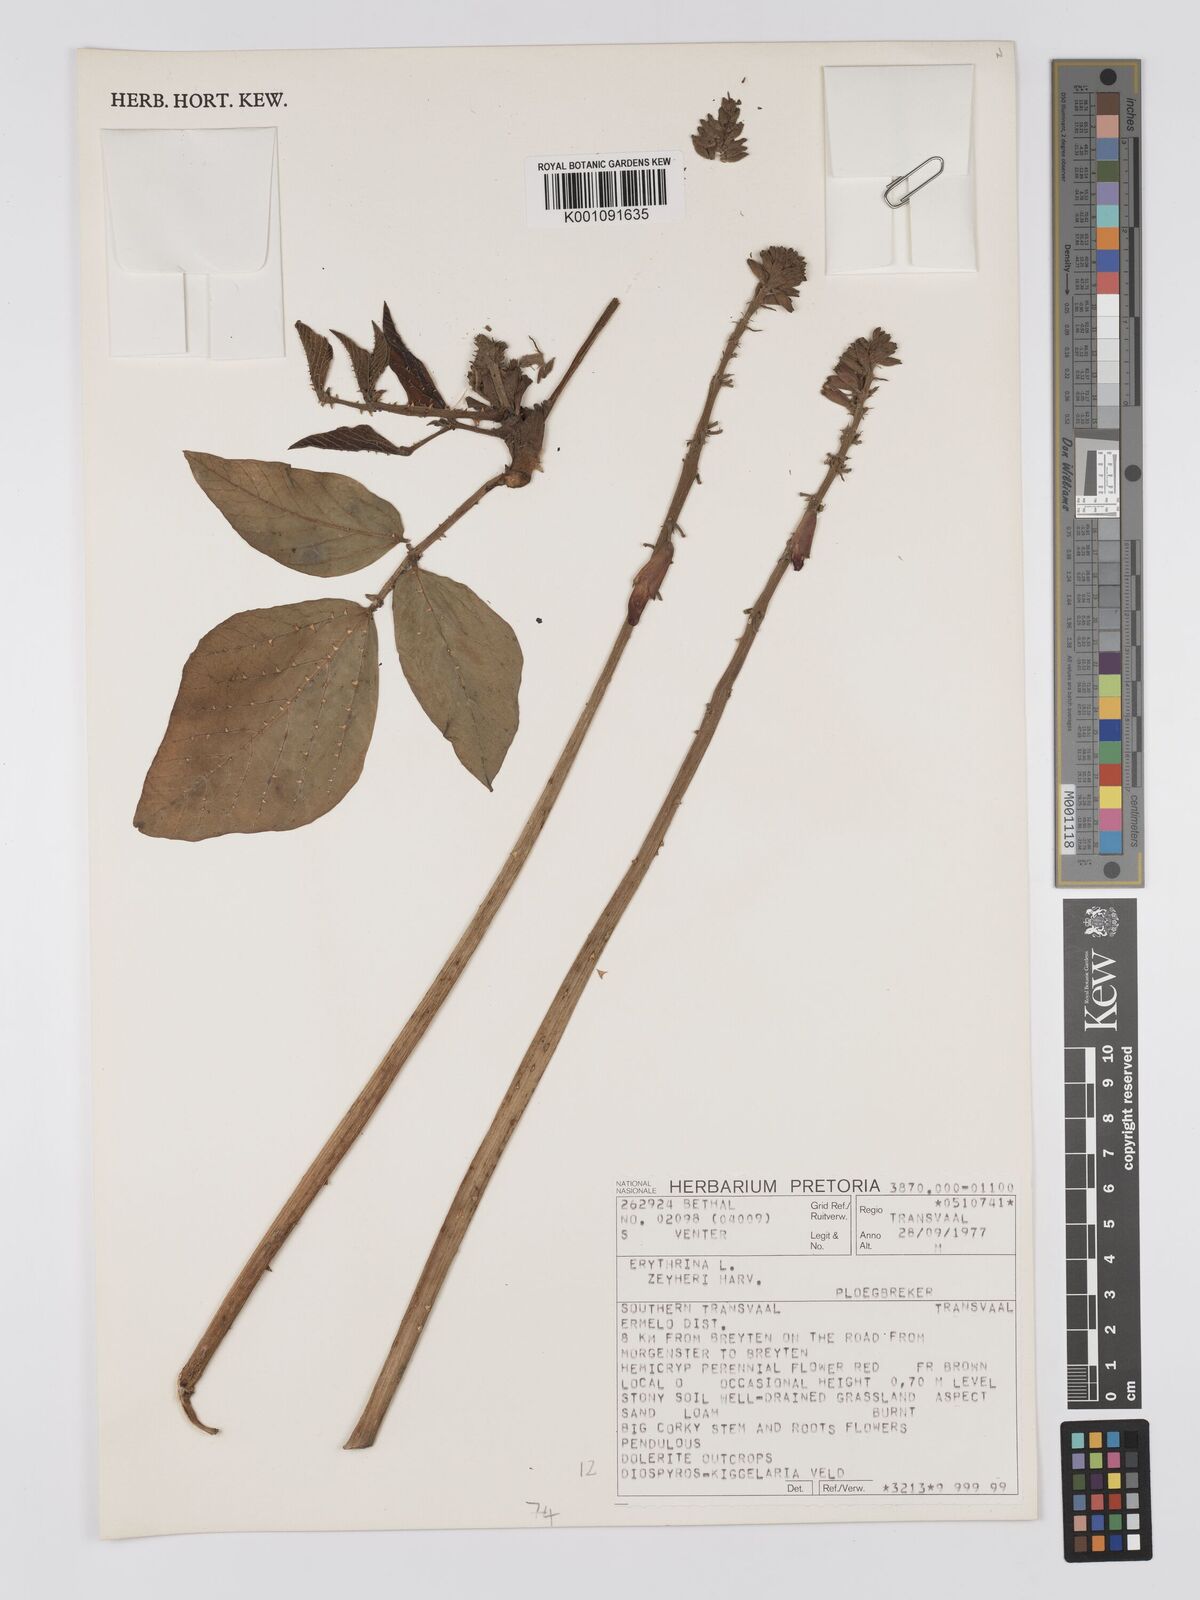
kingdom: Plantae
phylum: Tracheophyta
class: Magnoliopsida
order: Fabales
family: Fabaceae
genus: Erythrina
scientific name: Erythrina zeyheri
